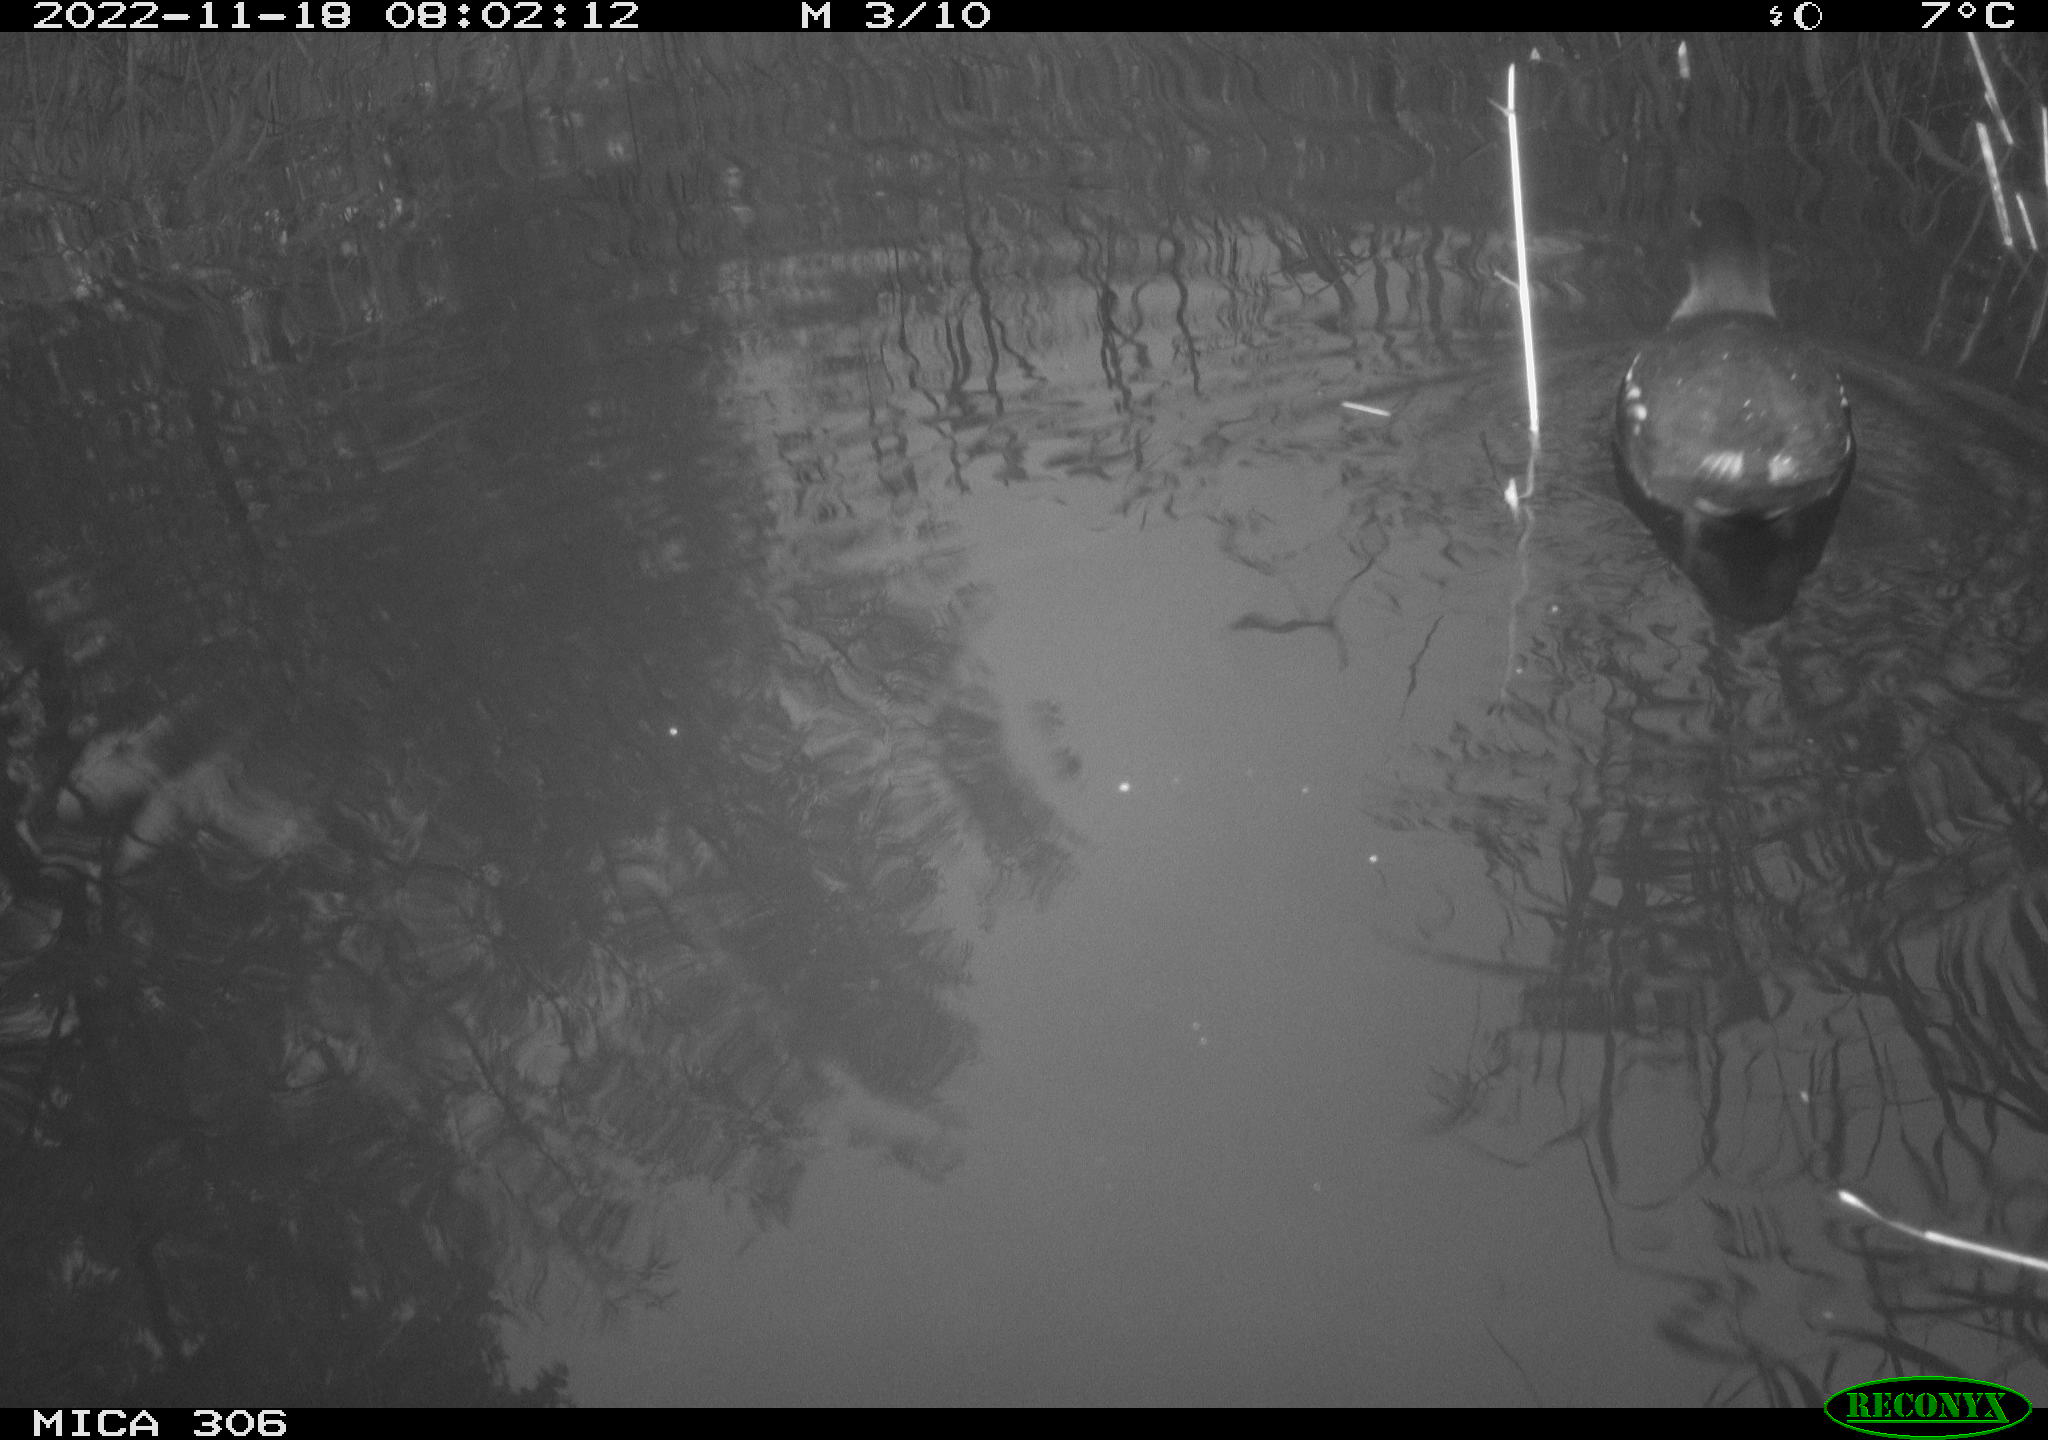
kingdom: Animalia
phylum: Chordata
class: Aves
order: Gruiformes
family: Rallidae
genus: Gallinula
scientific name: Gallinula chloropus
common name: Common moorhen
